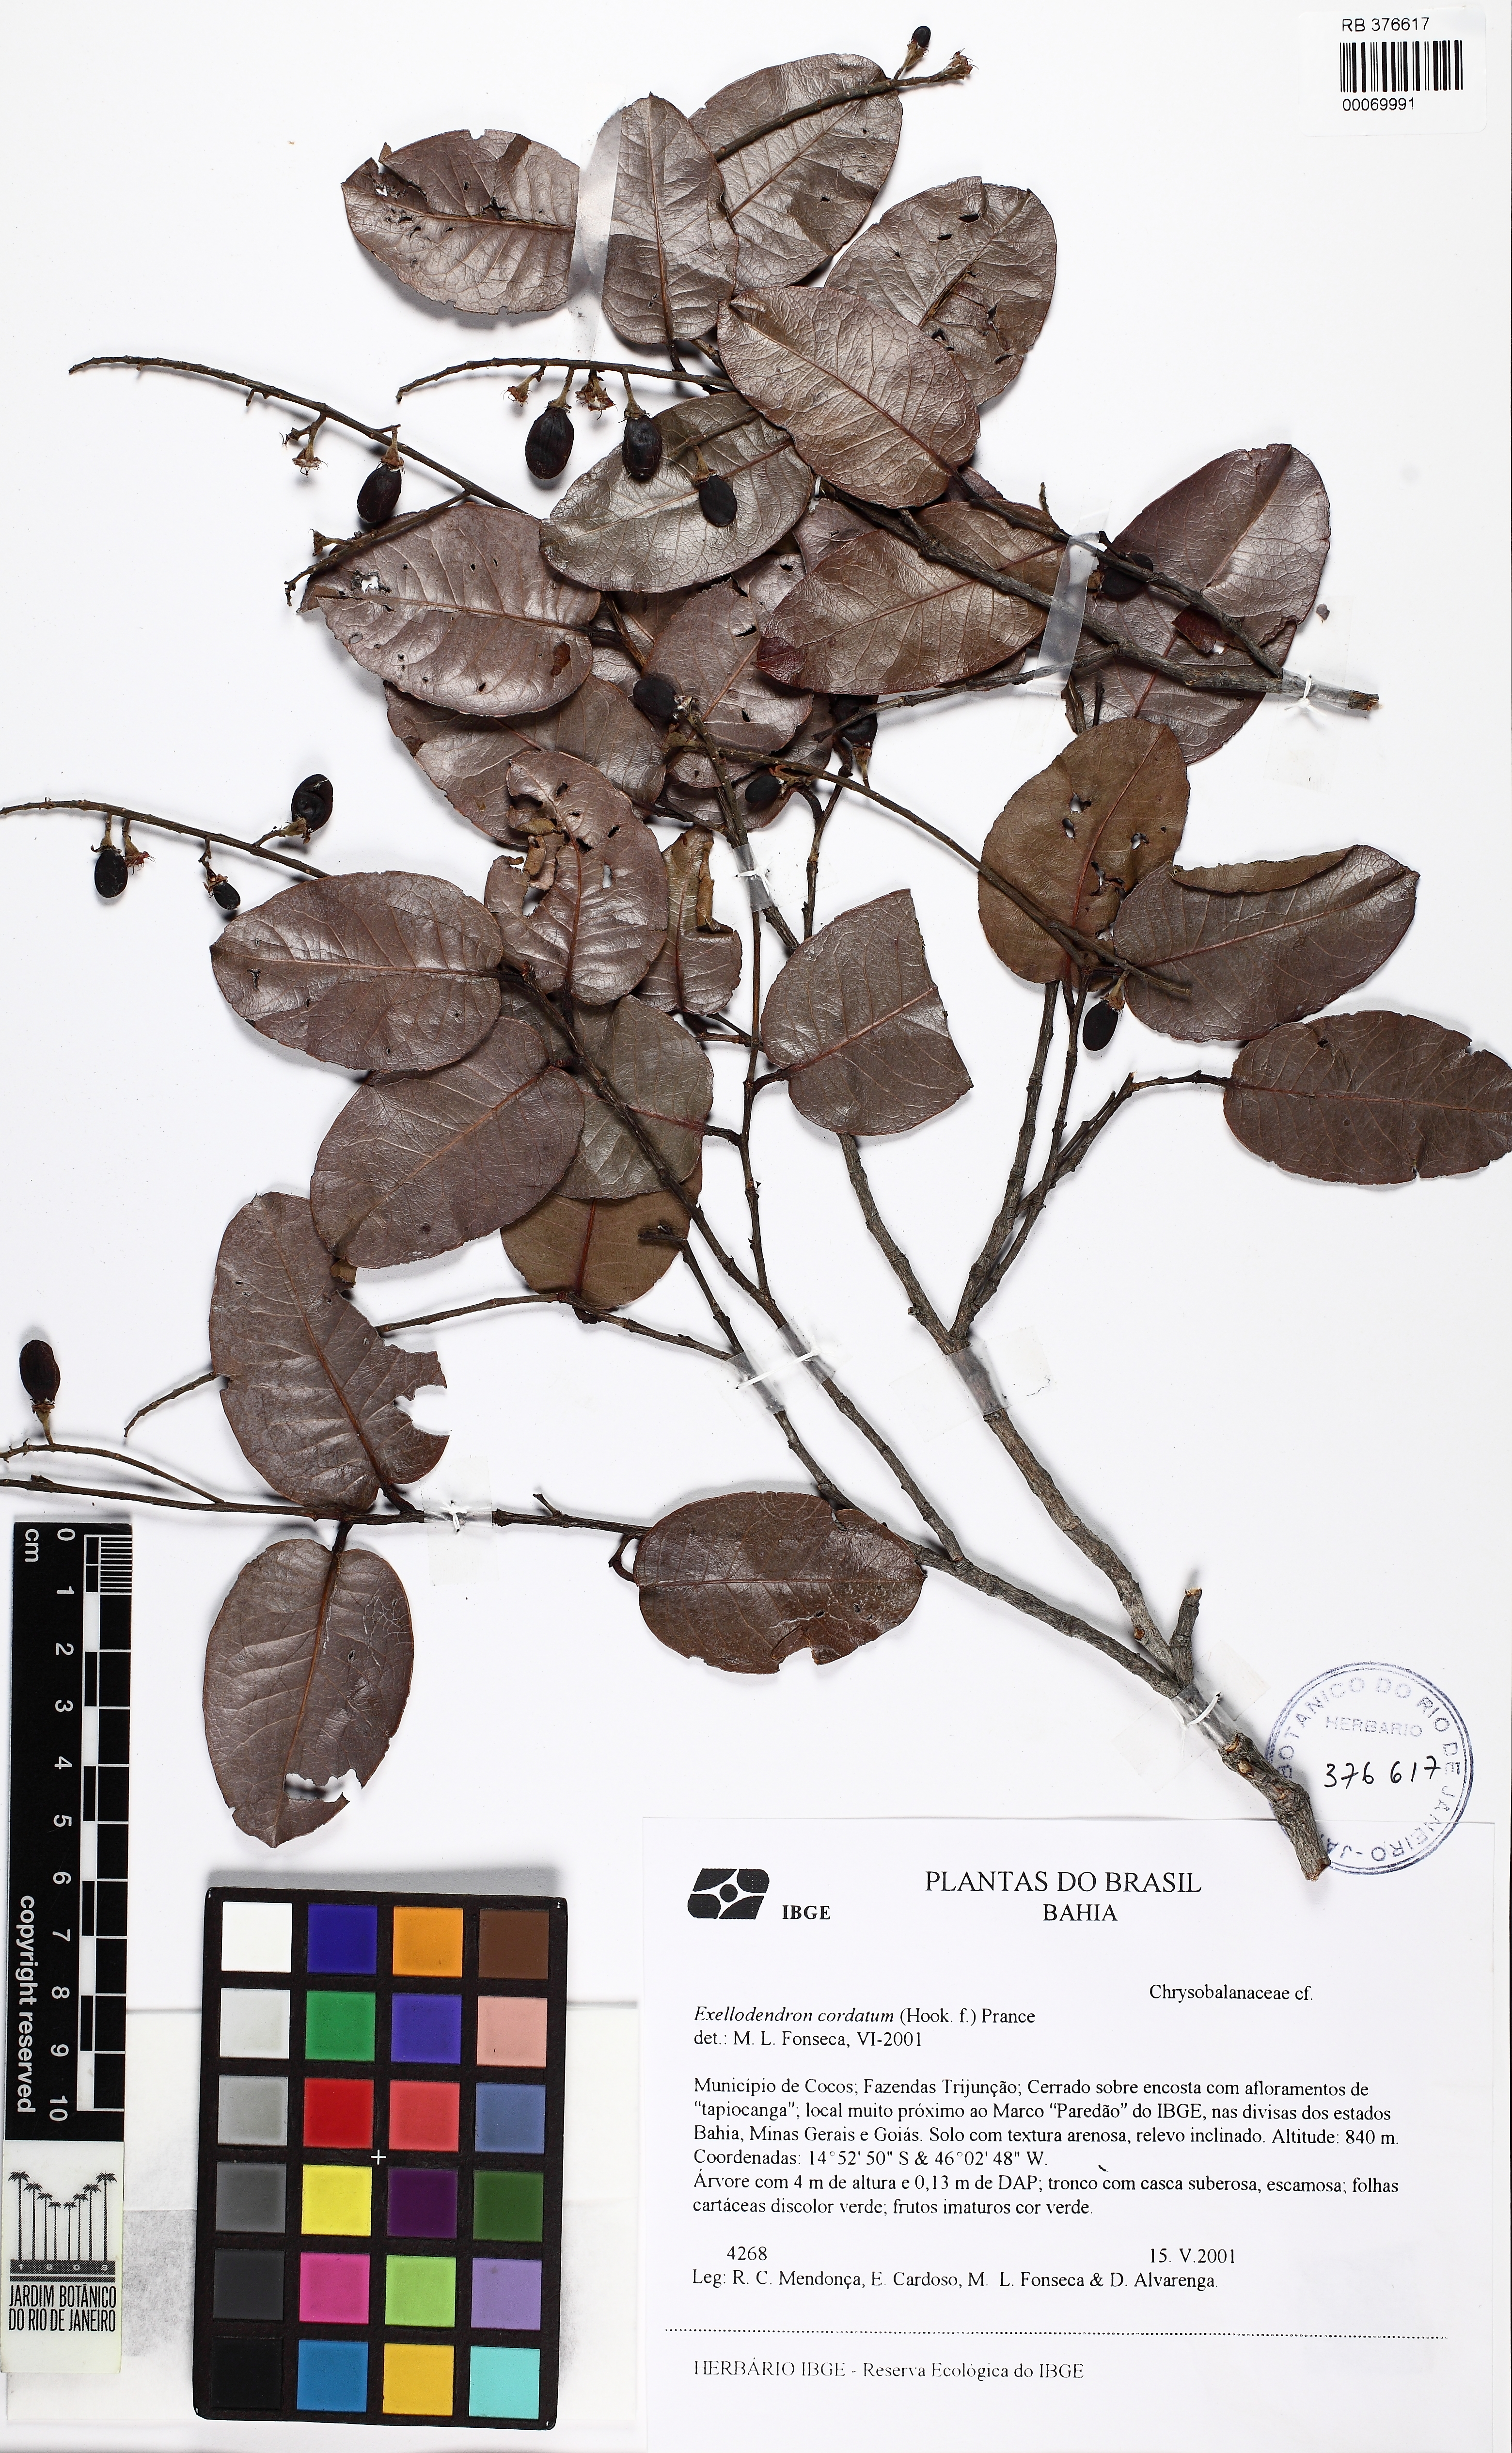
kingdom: Plantae
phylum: Tracheophyta
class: Magnoliopsida
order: Malpighiales
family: Chrysobalanaceae
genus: Exellodendron
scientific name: Exellodendron cordatum
